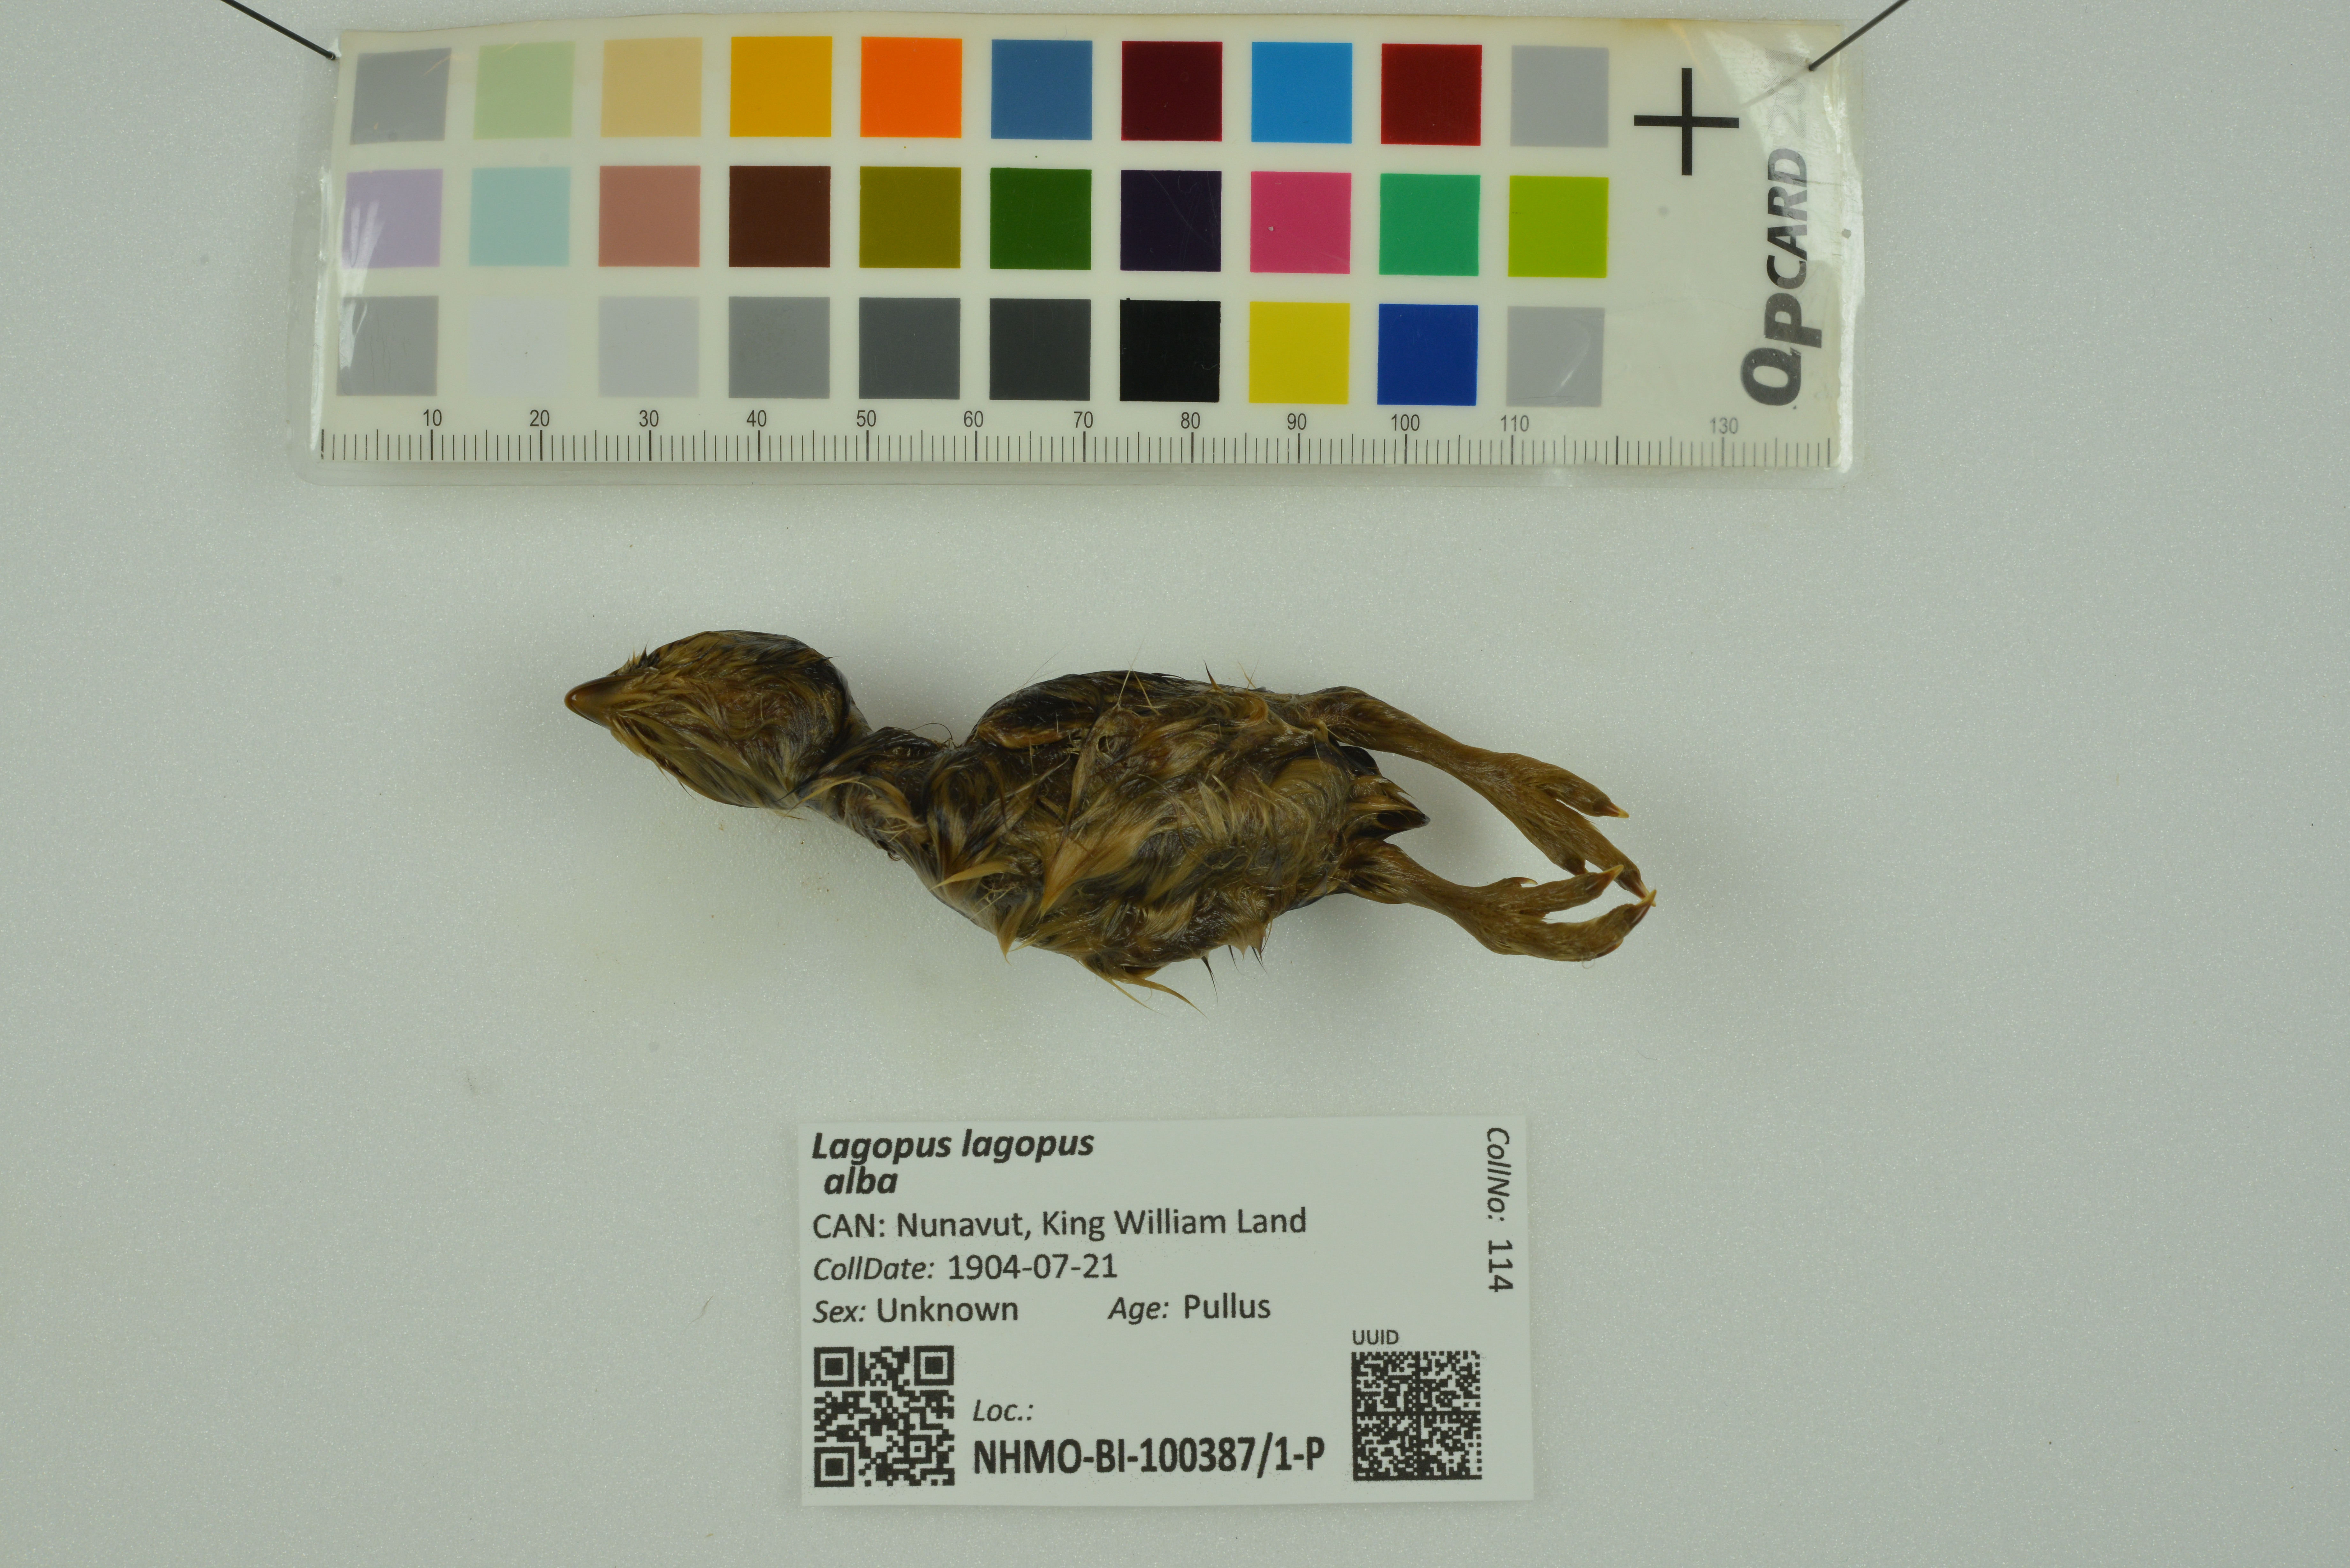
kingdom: Animalia
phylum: Chordata
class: Aves
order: Galliformes
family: Phasianidae
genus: Lagopus
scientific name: Lagopus lagopus
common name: Willow ptarmigan
